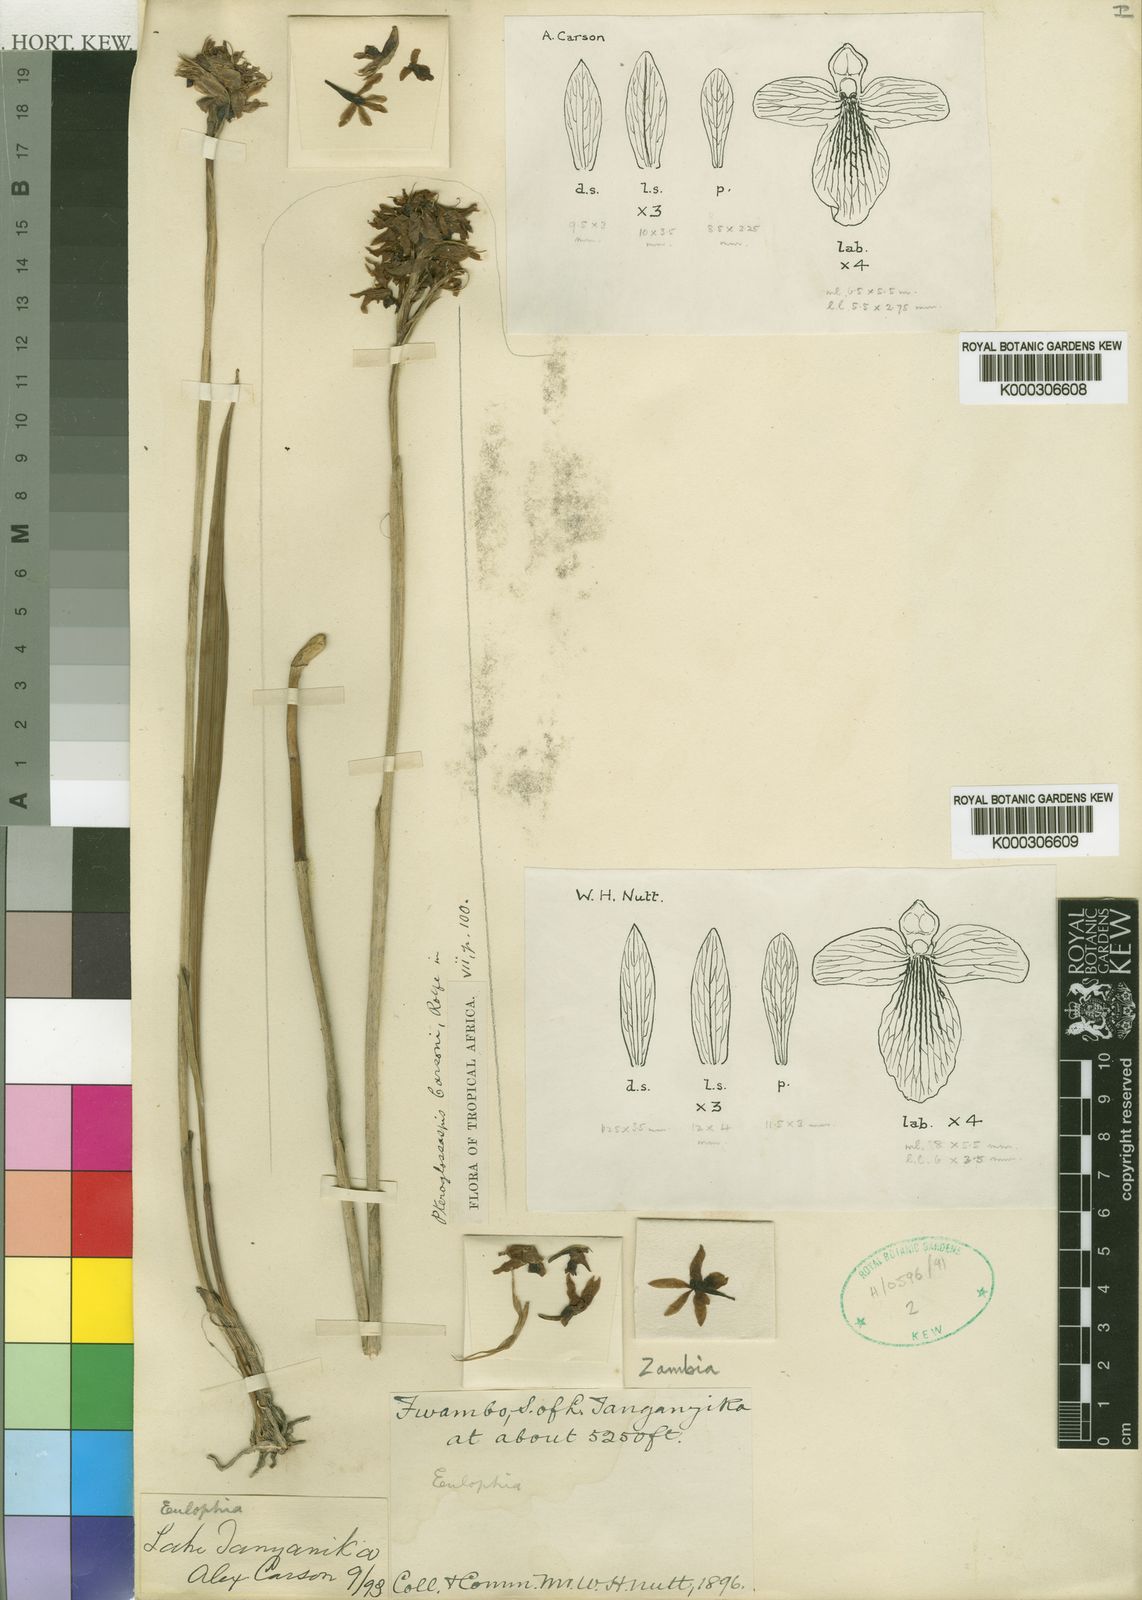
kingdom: Plantae
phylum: Tracheophyta
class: Liliopsida
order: Asparagales
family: Orchidaceae
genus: Eulophia
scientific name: Eulophia ruwenzoriensis
